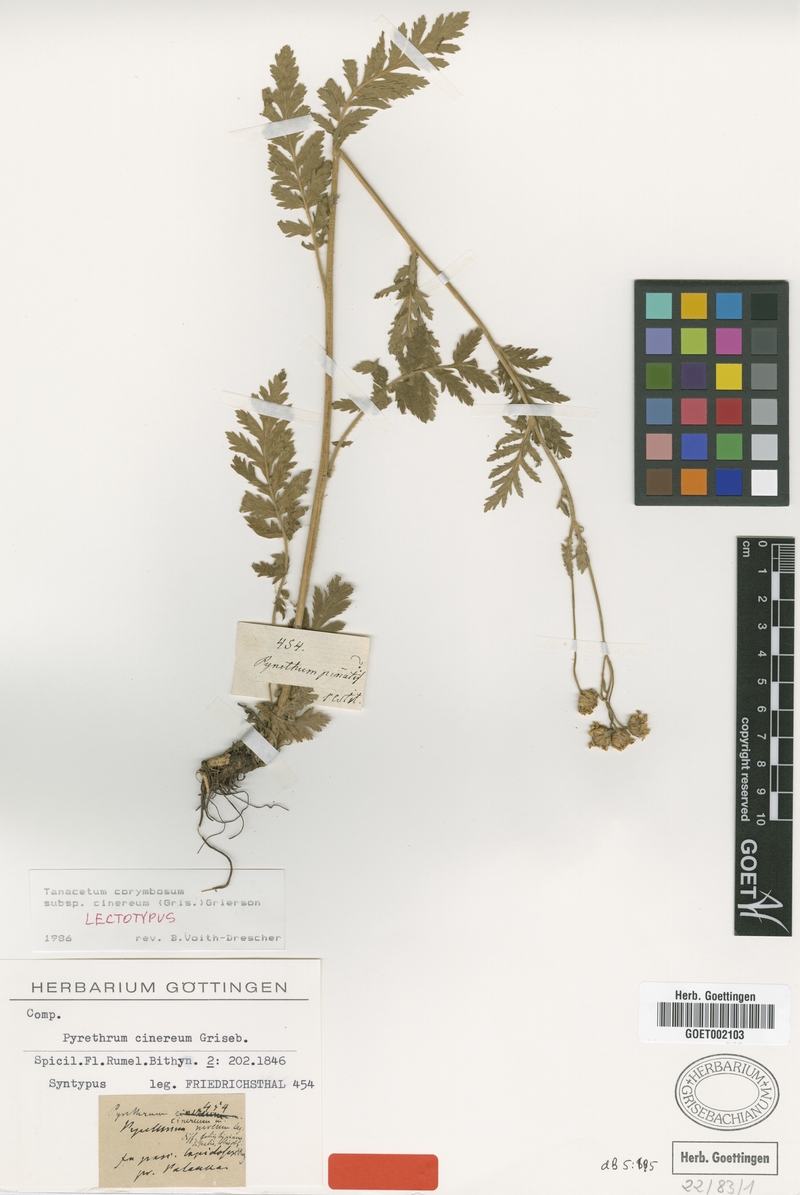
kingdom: Plantae
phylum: Tracheophyta
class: Magnoliopsida
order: Asterales
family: Asteraceae
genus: Tanacetum
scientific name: Tanacetum corymbosum
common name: Scentless feverfew
